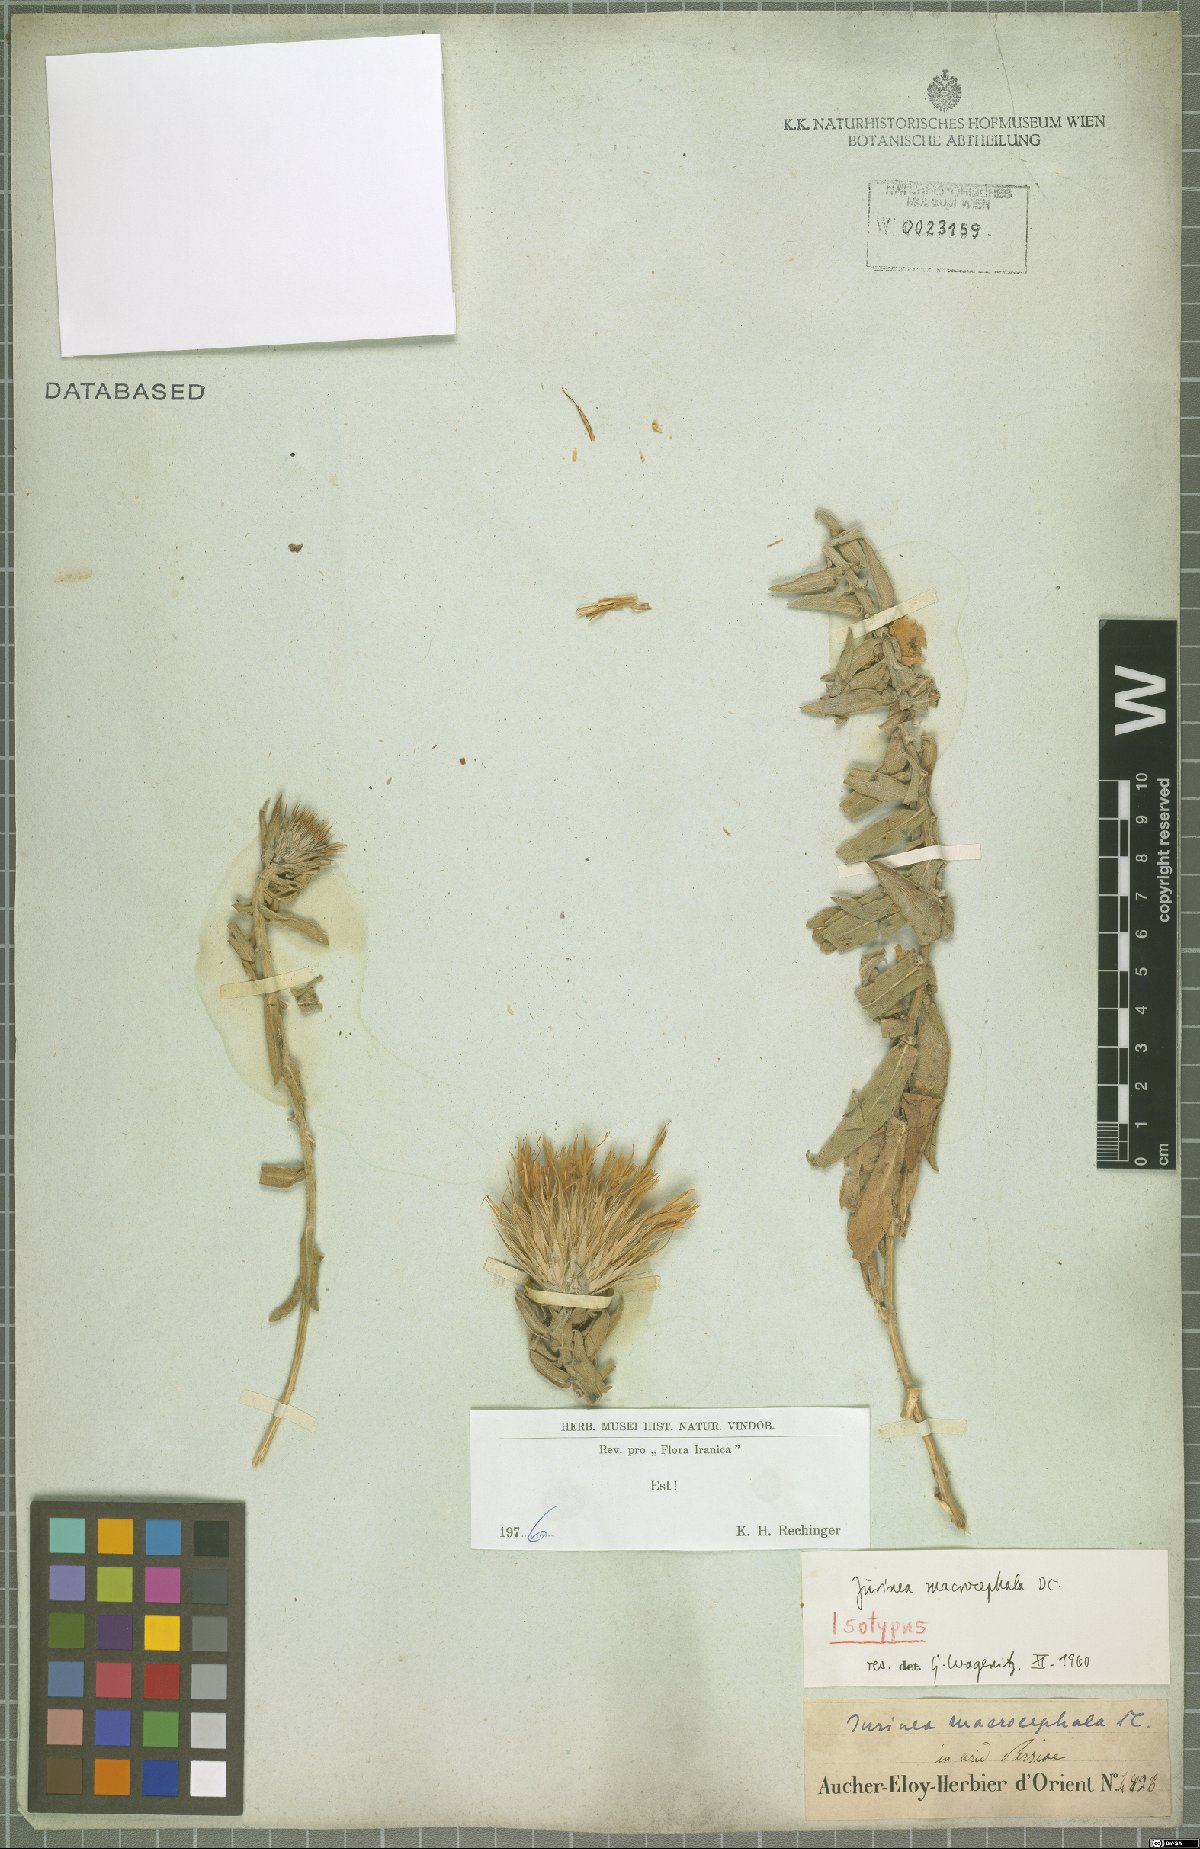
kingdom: Plantae
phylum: Tracheophyta
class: Magnoliopsida
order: Asterales
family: Asteraceae
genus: Jurinea
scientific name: Jurinea macrocephala
